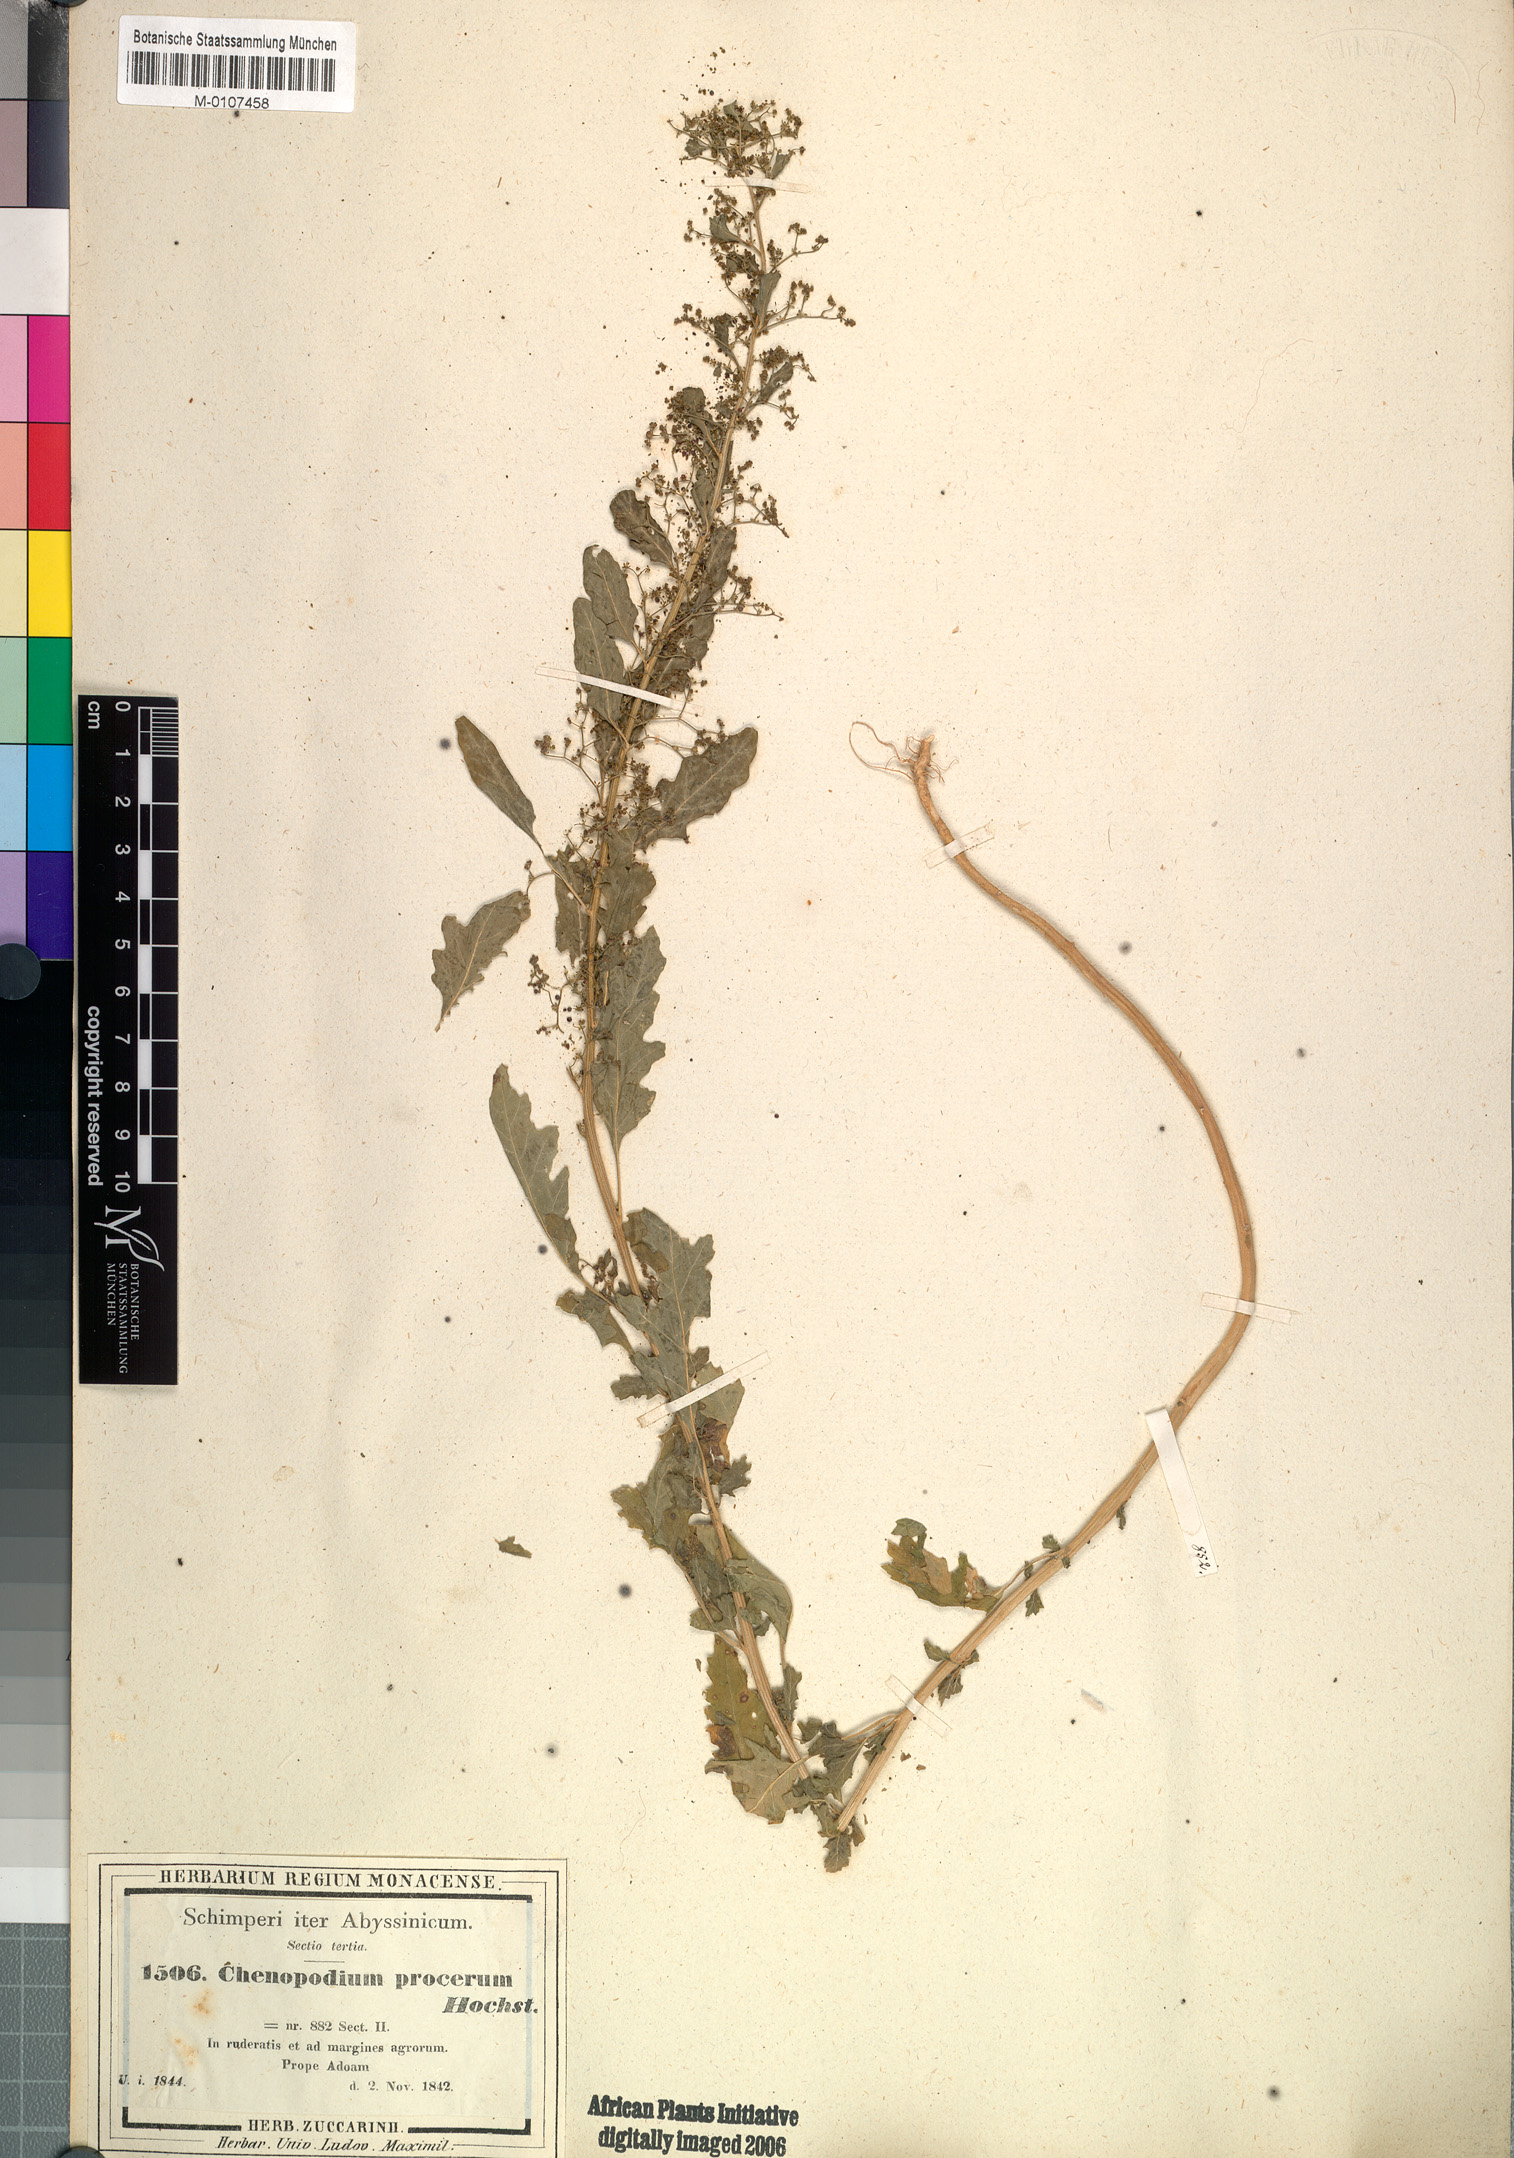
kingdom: Plantae
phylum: Tracheophyta
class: Magnoliopsida
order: Caryophyllales
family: Amaranthaceae
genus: Dysphania
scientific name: Dysphania procera
